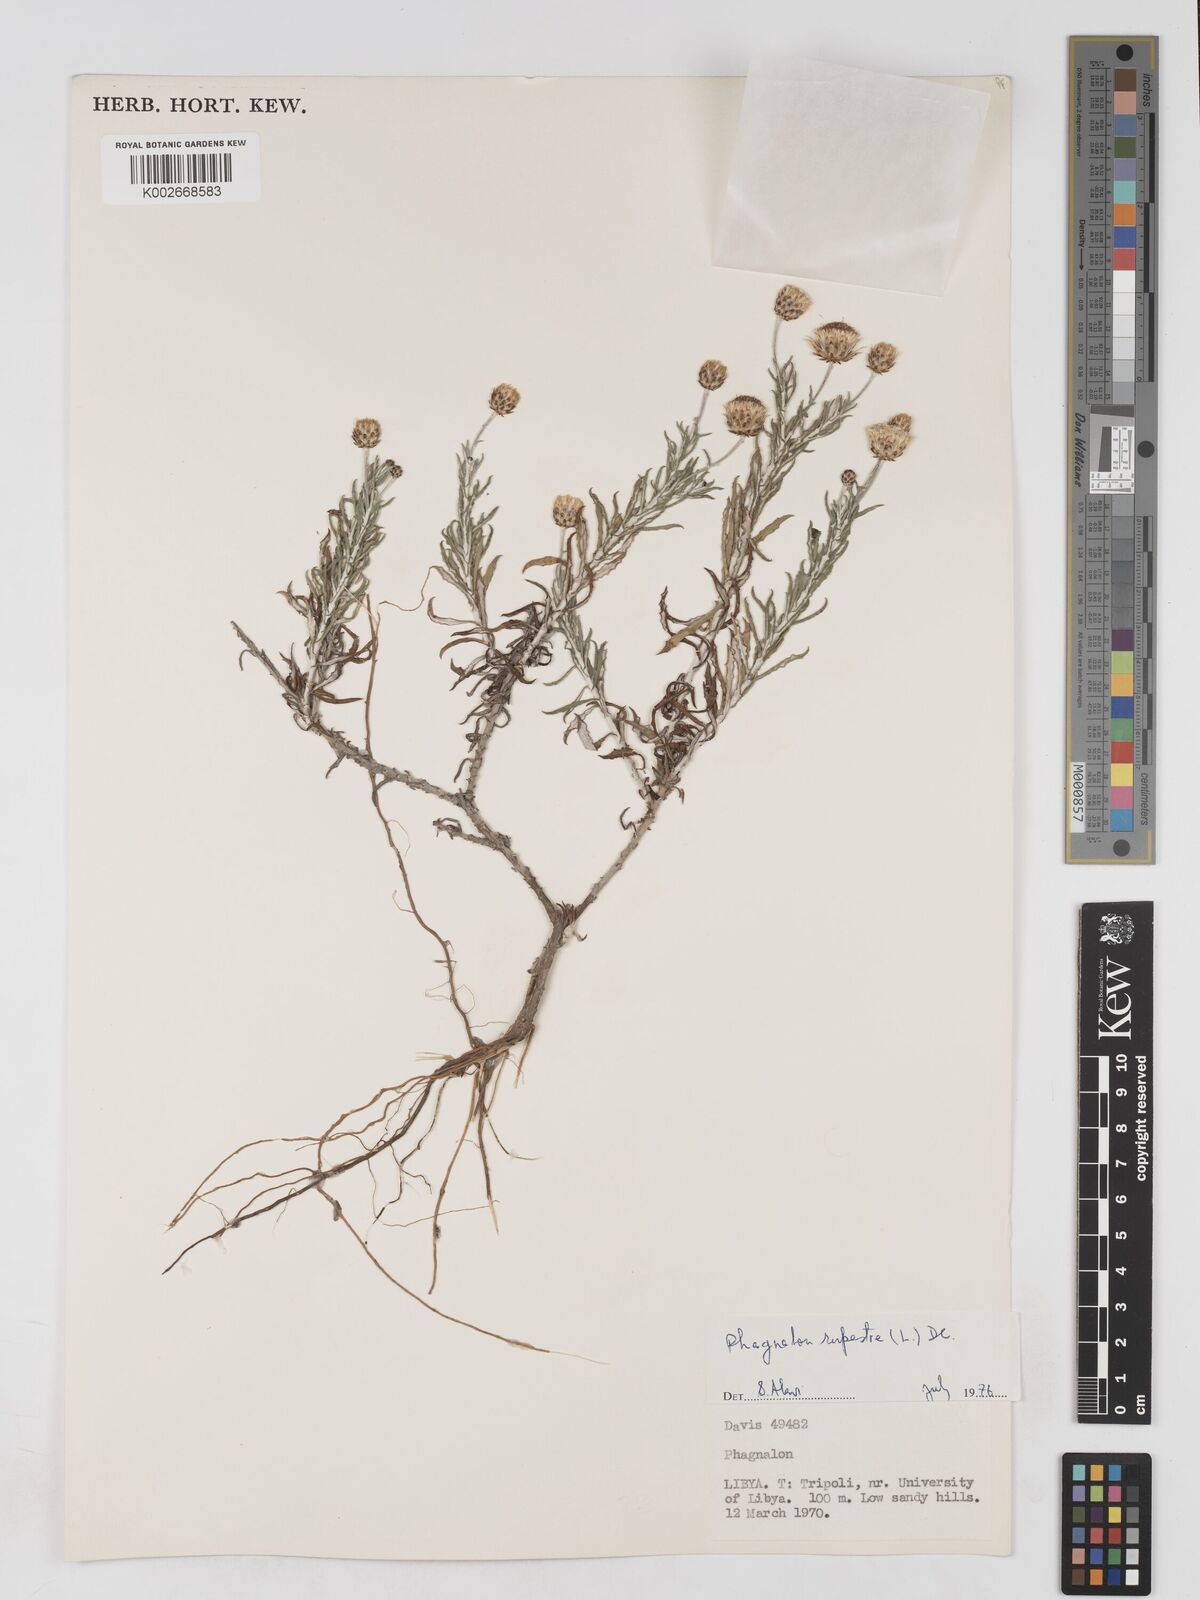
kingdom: Plantae
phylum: Tracheophyta
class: Magnoliopsida
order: Asterales
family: Asteraceae
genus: Phagnalon
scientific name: Phagnalon rupestre
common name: Rock phagnalon
